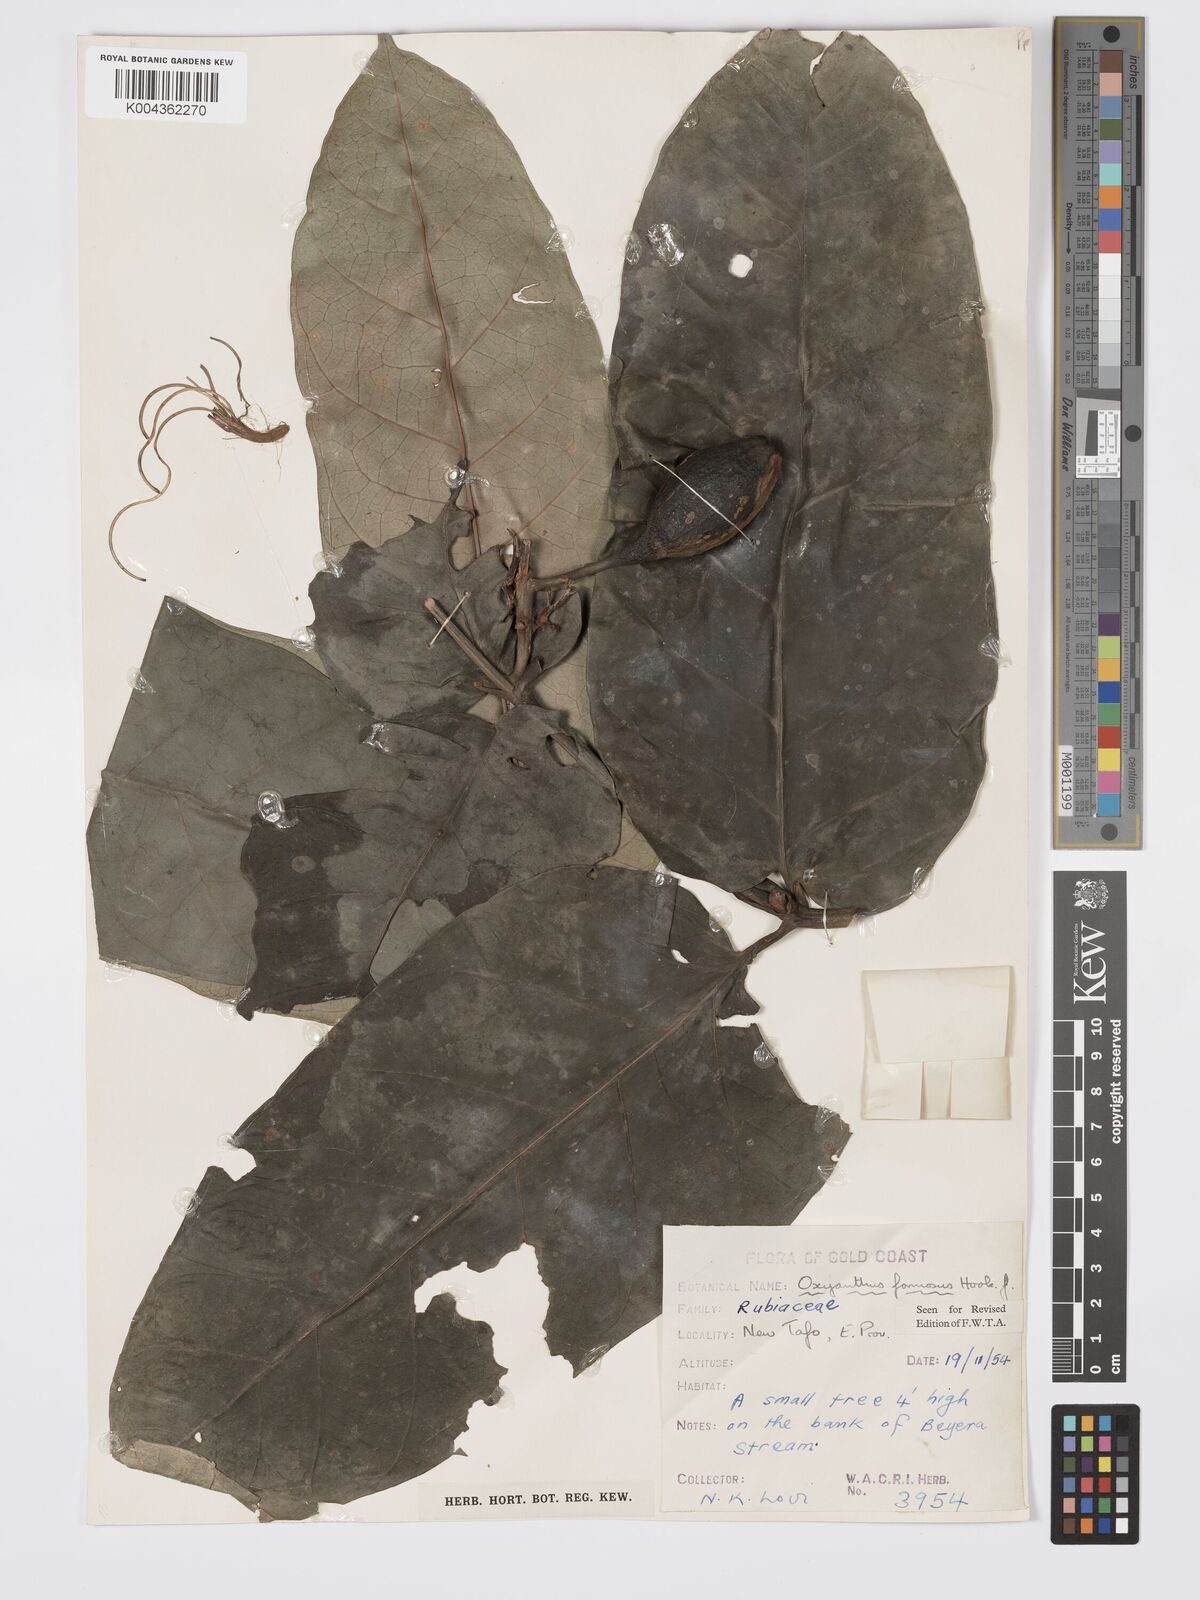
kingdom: Plantae
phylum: Tracheophyta
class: Magnoliopsida
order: Gentianales
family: Rubiaceae
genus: Oxyanthus
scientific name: Oxyanthus formosus
